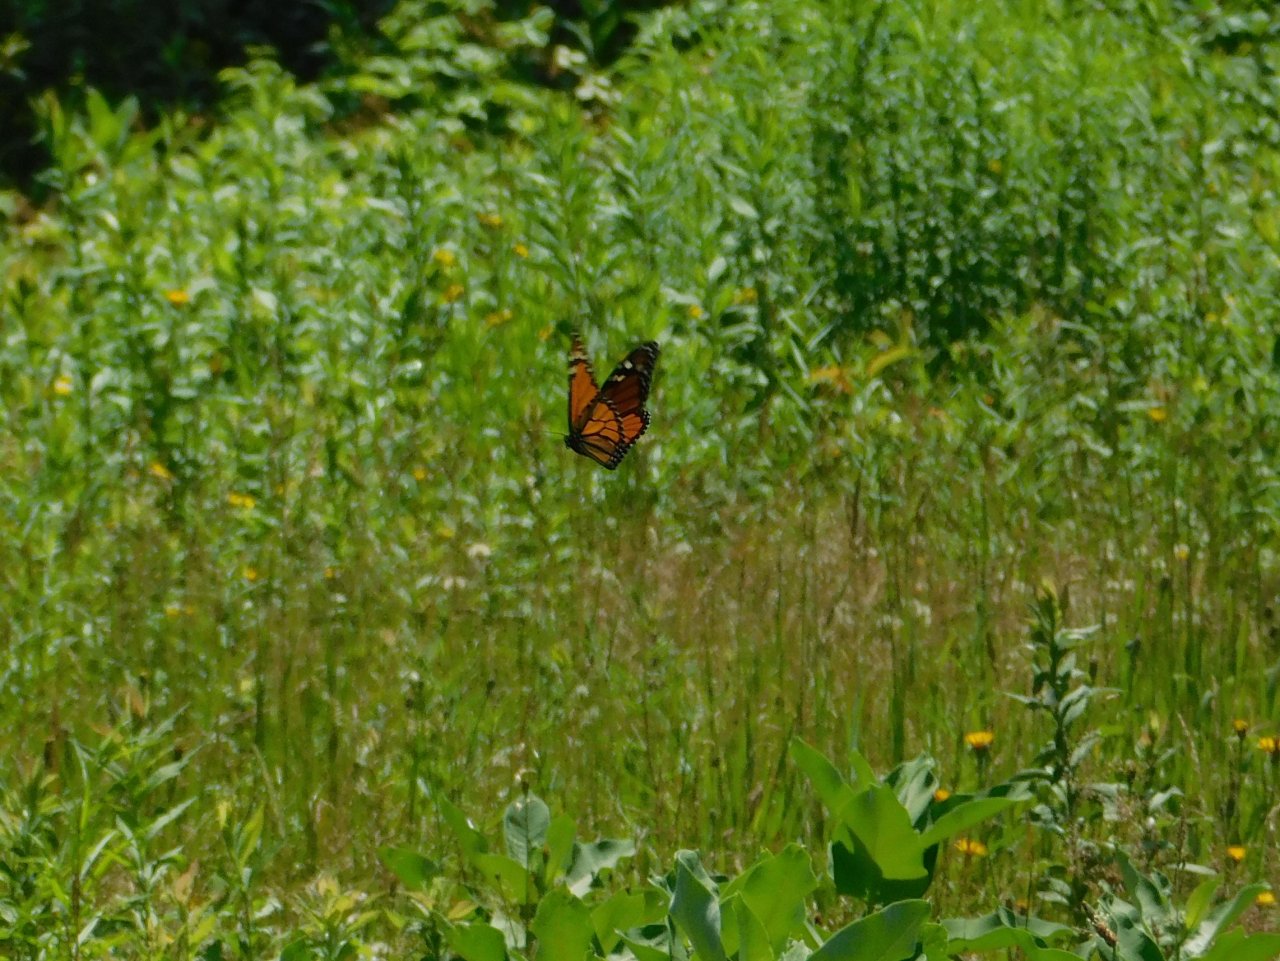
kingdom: Animalia
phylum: Arthropoda
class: Insecta
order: Lepidoptera
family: Nymphalidae
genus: Danaus
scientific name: Danaus plexippus
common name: Monarch
